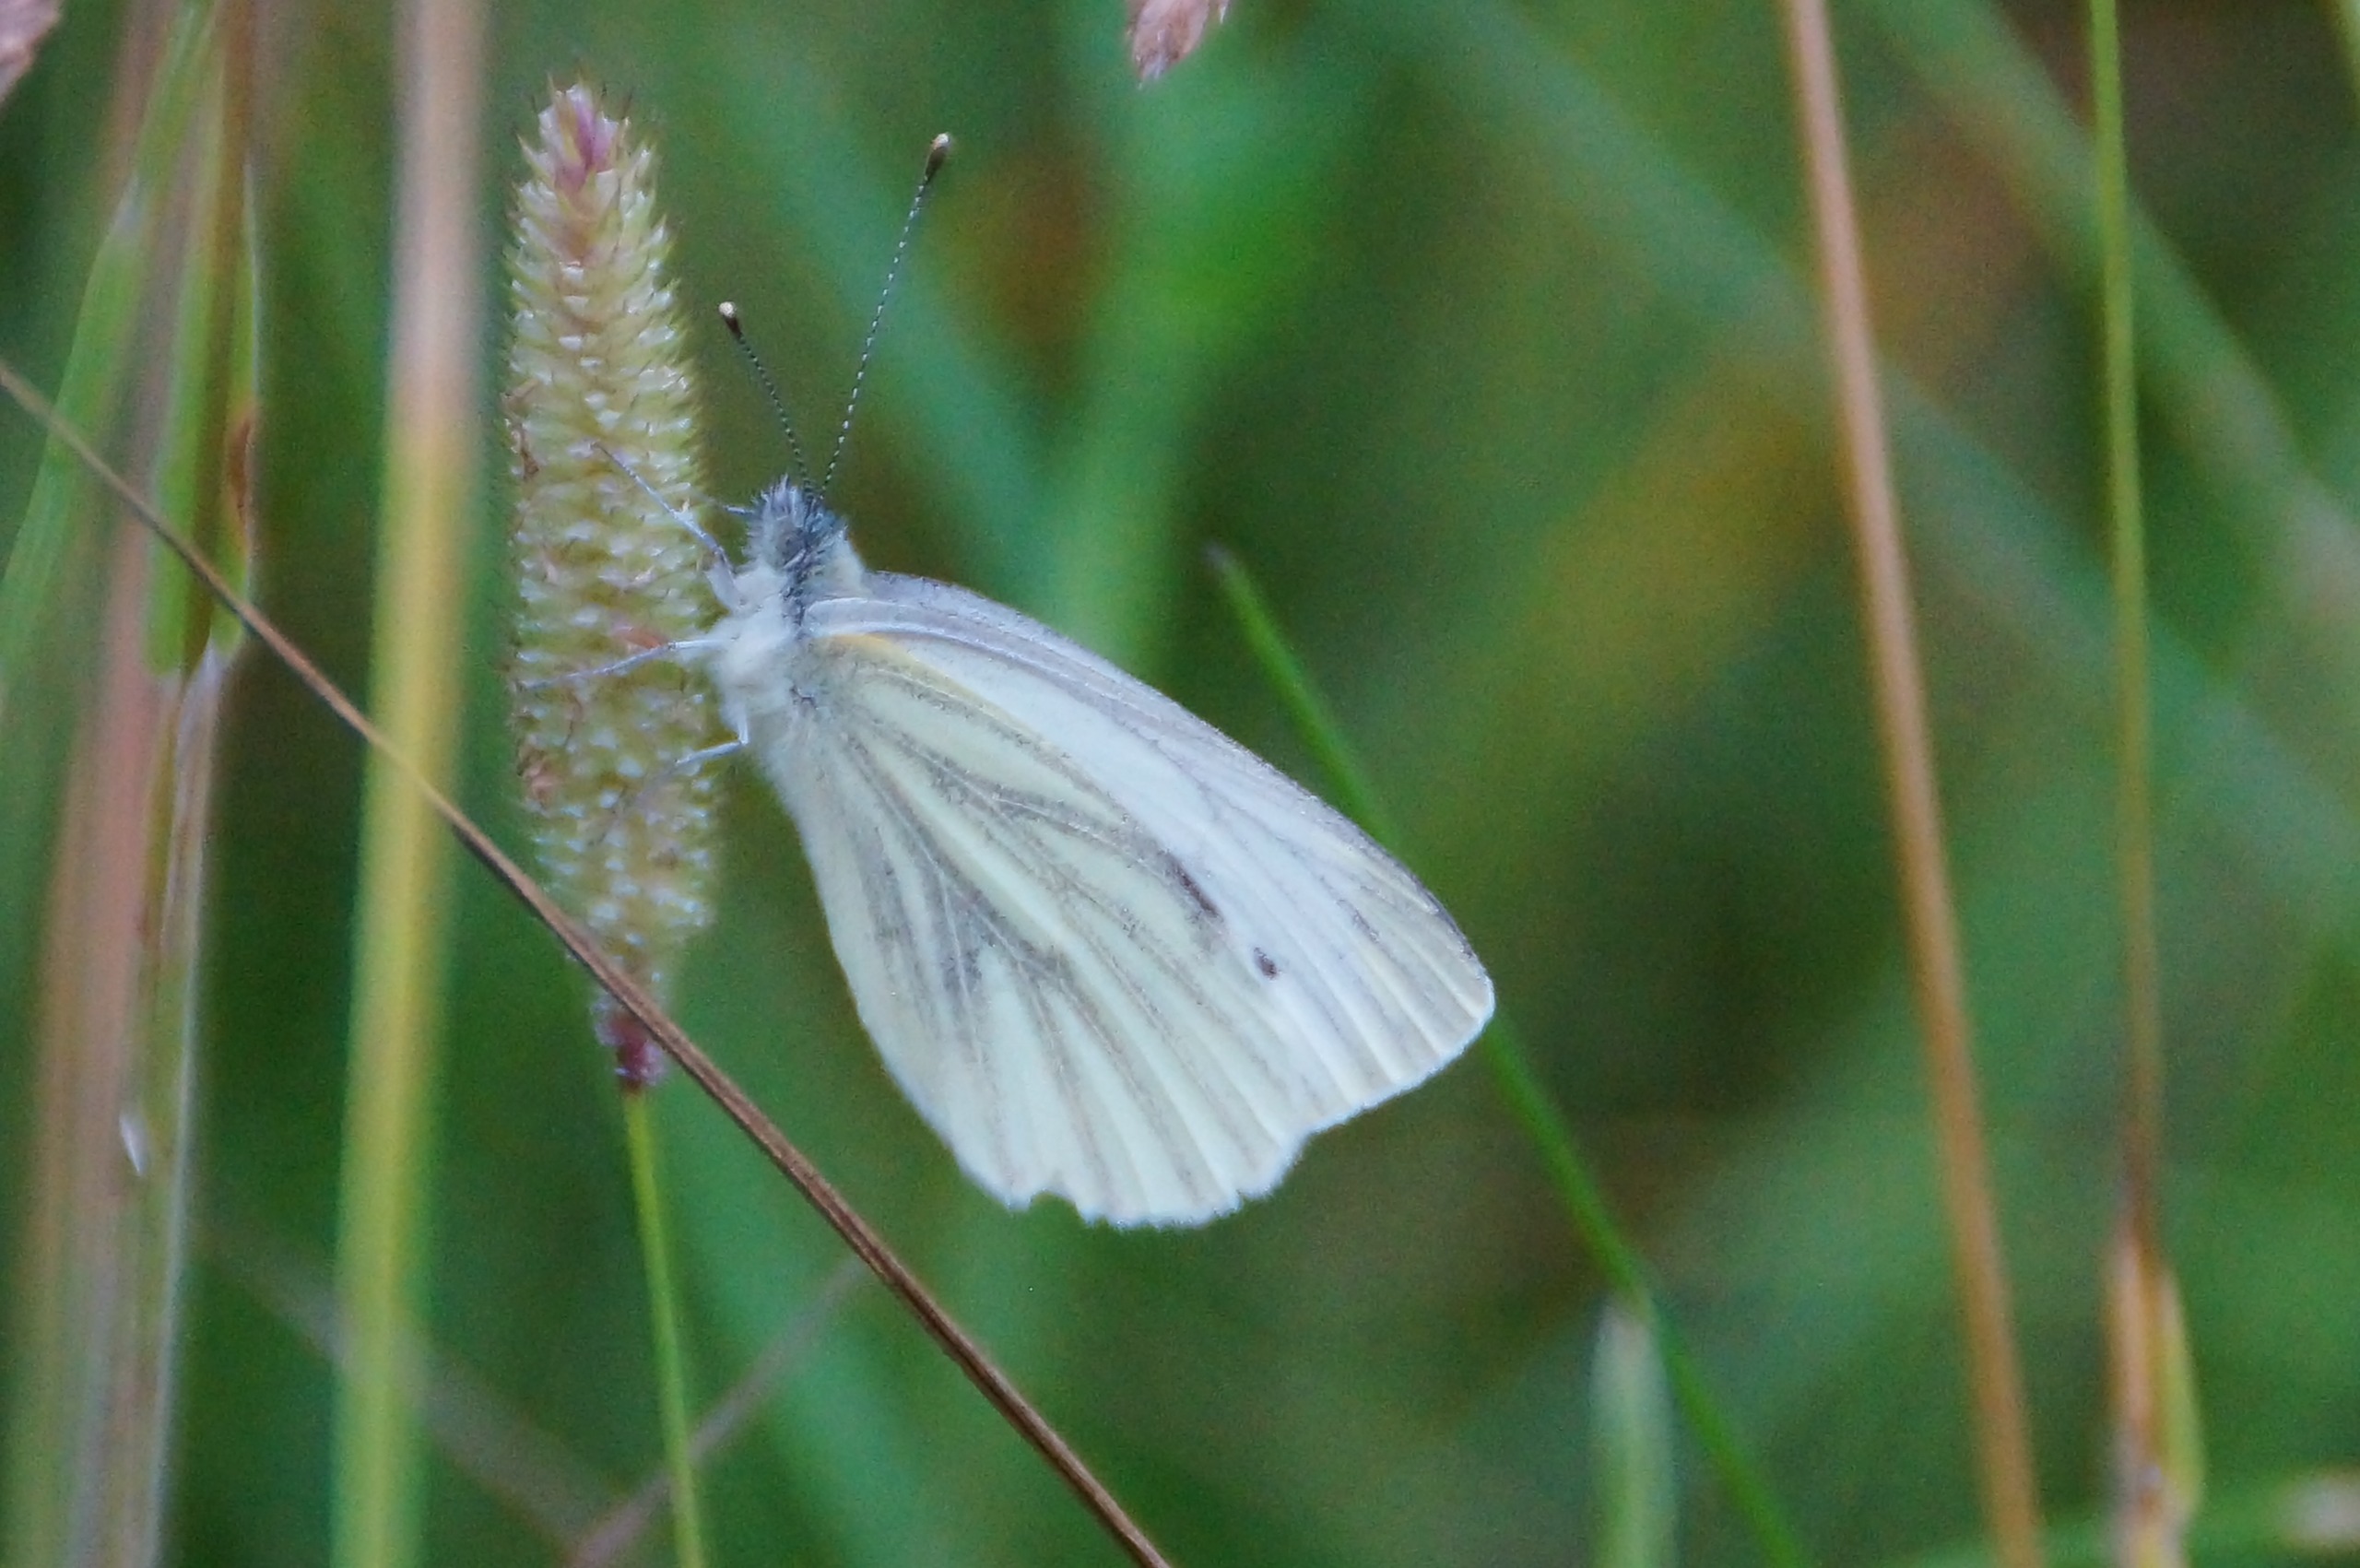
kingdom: Animalia
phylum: Arthropoda
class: Insecta
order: Lepidoptera
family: Pieridae
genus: Pieris
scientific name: Pieris napi
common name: Grønåret kålsommerfugl
